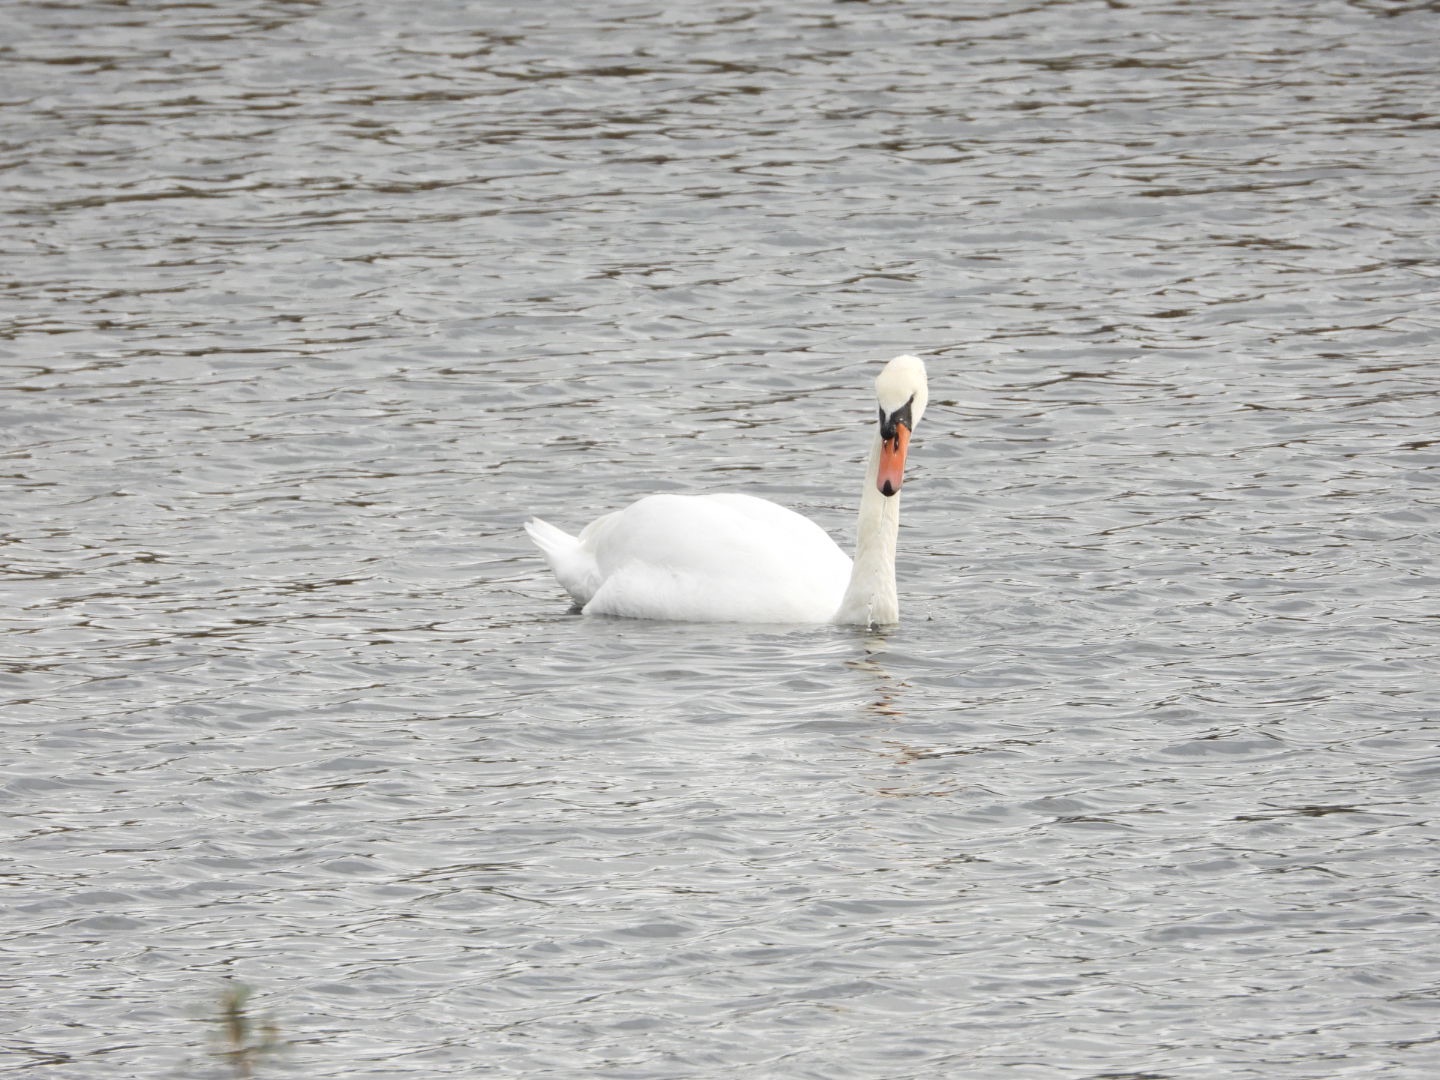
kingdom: Animalia
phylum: Chordata
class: Aves
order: Anseriformes
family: Anatidae
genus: Cygnus
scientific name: Cygnus olor
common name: Knopsvane
